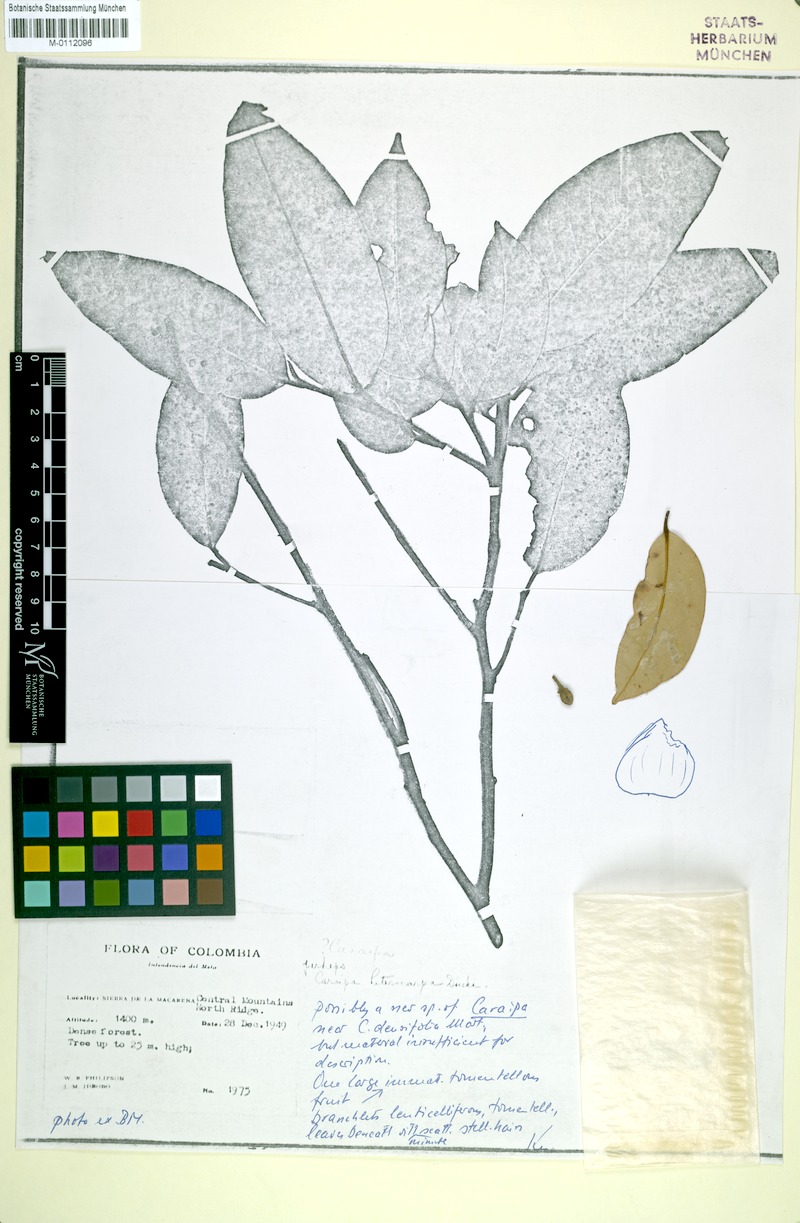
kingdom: Plantae
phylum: Tracheophyta
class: Magnoliopsida
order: Malpighiales
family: Calophyllaceae
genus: Caraipa
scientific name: Caraipa
